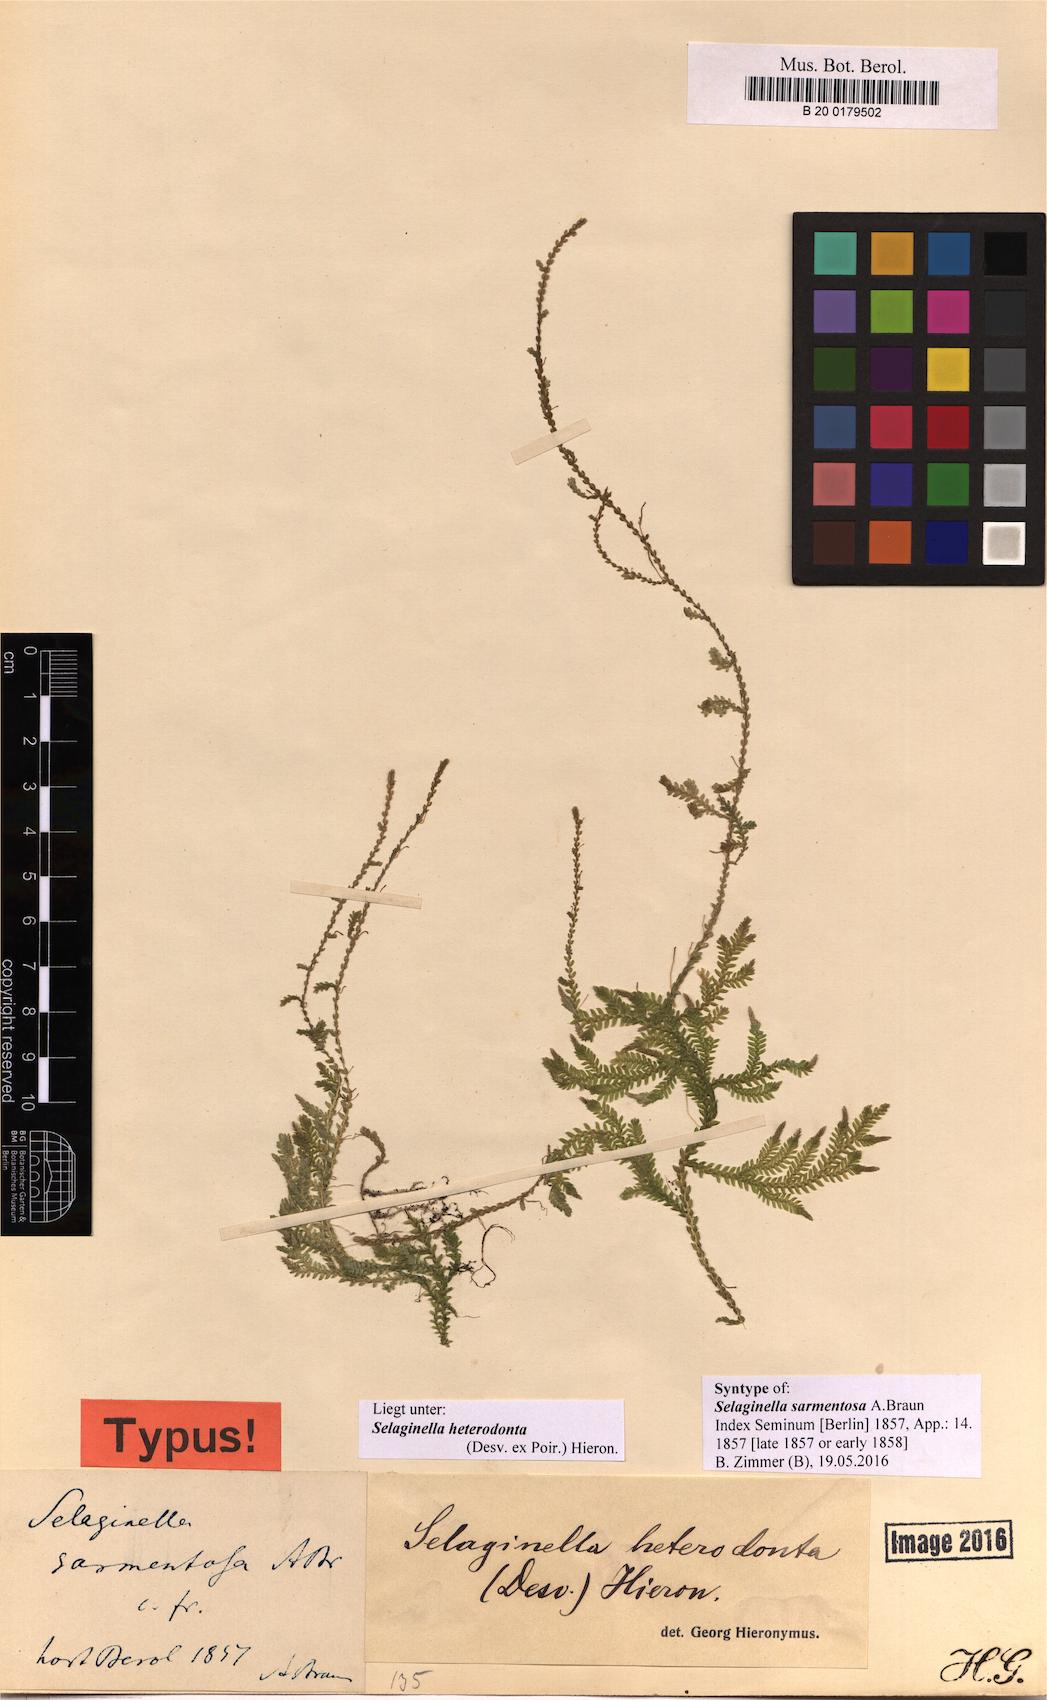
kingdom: Plantae
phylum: Tracheophyta
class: Lycopodiopsida
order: Selaginellales
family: Selaginellaceae
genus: Selaginella
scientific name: Selaginella heterodonta
